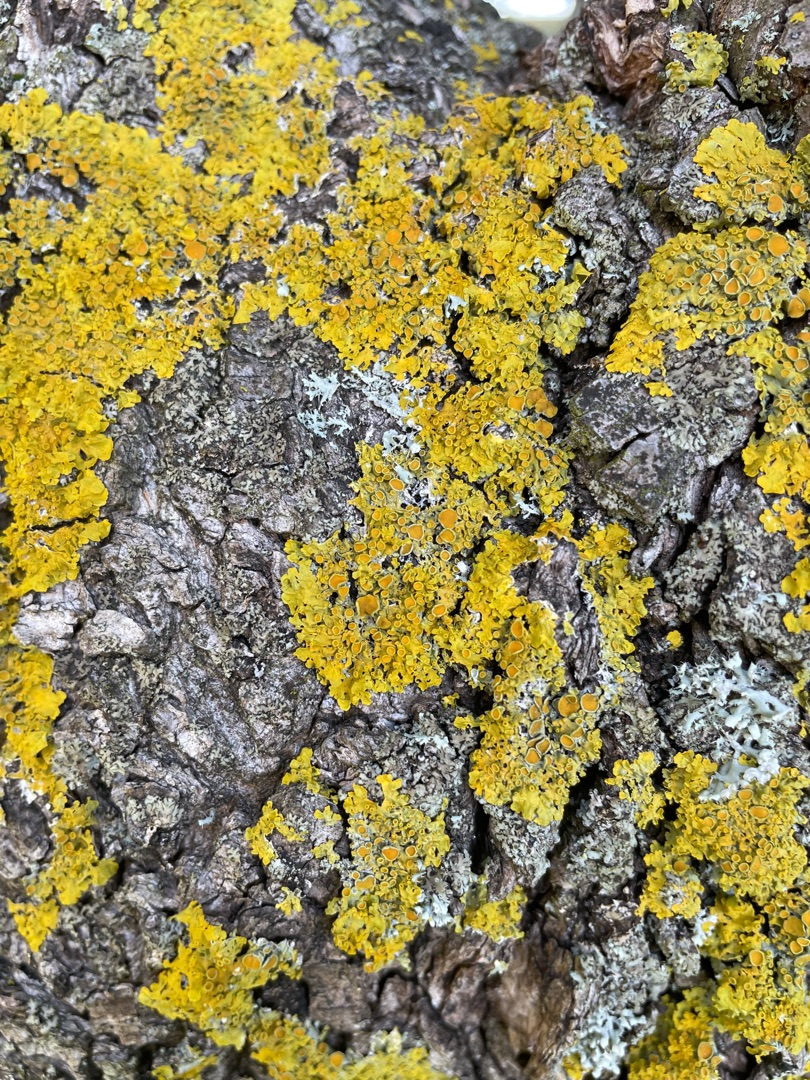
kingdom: Fungi
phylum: Ascomycota
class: Lecanoromycetes
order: Teloschistales
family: Teloschistaceae
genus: Xanthoria
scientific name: Xanthoria parietina
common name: Almindelig væggelav
